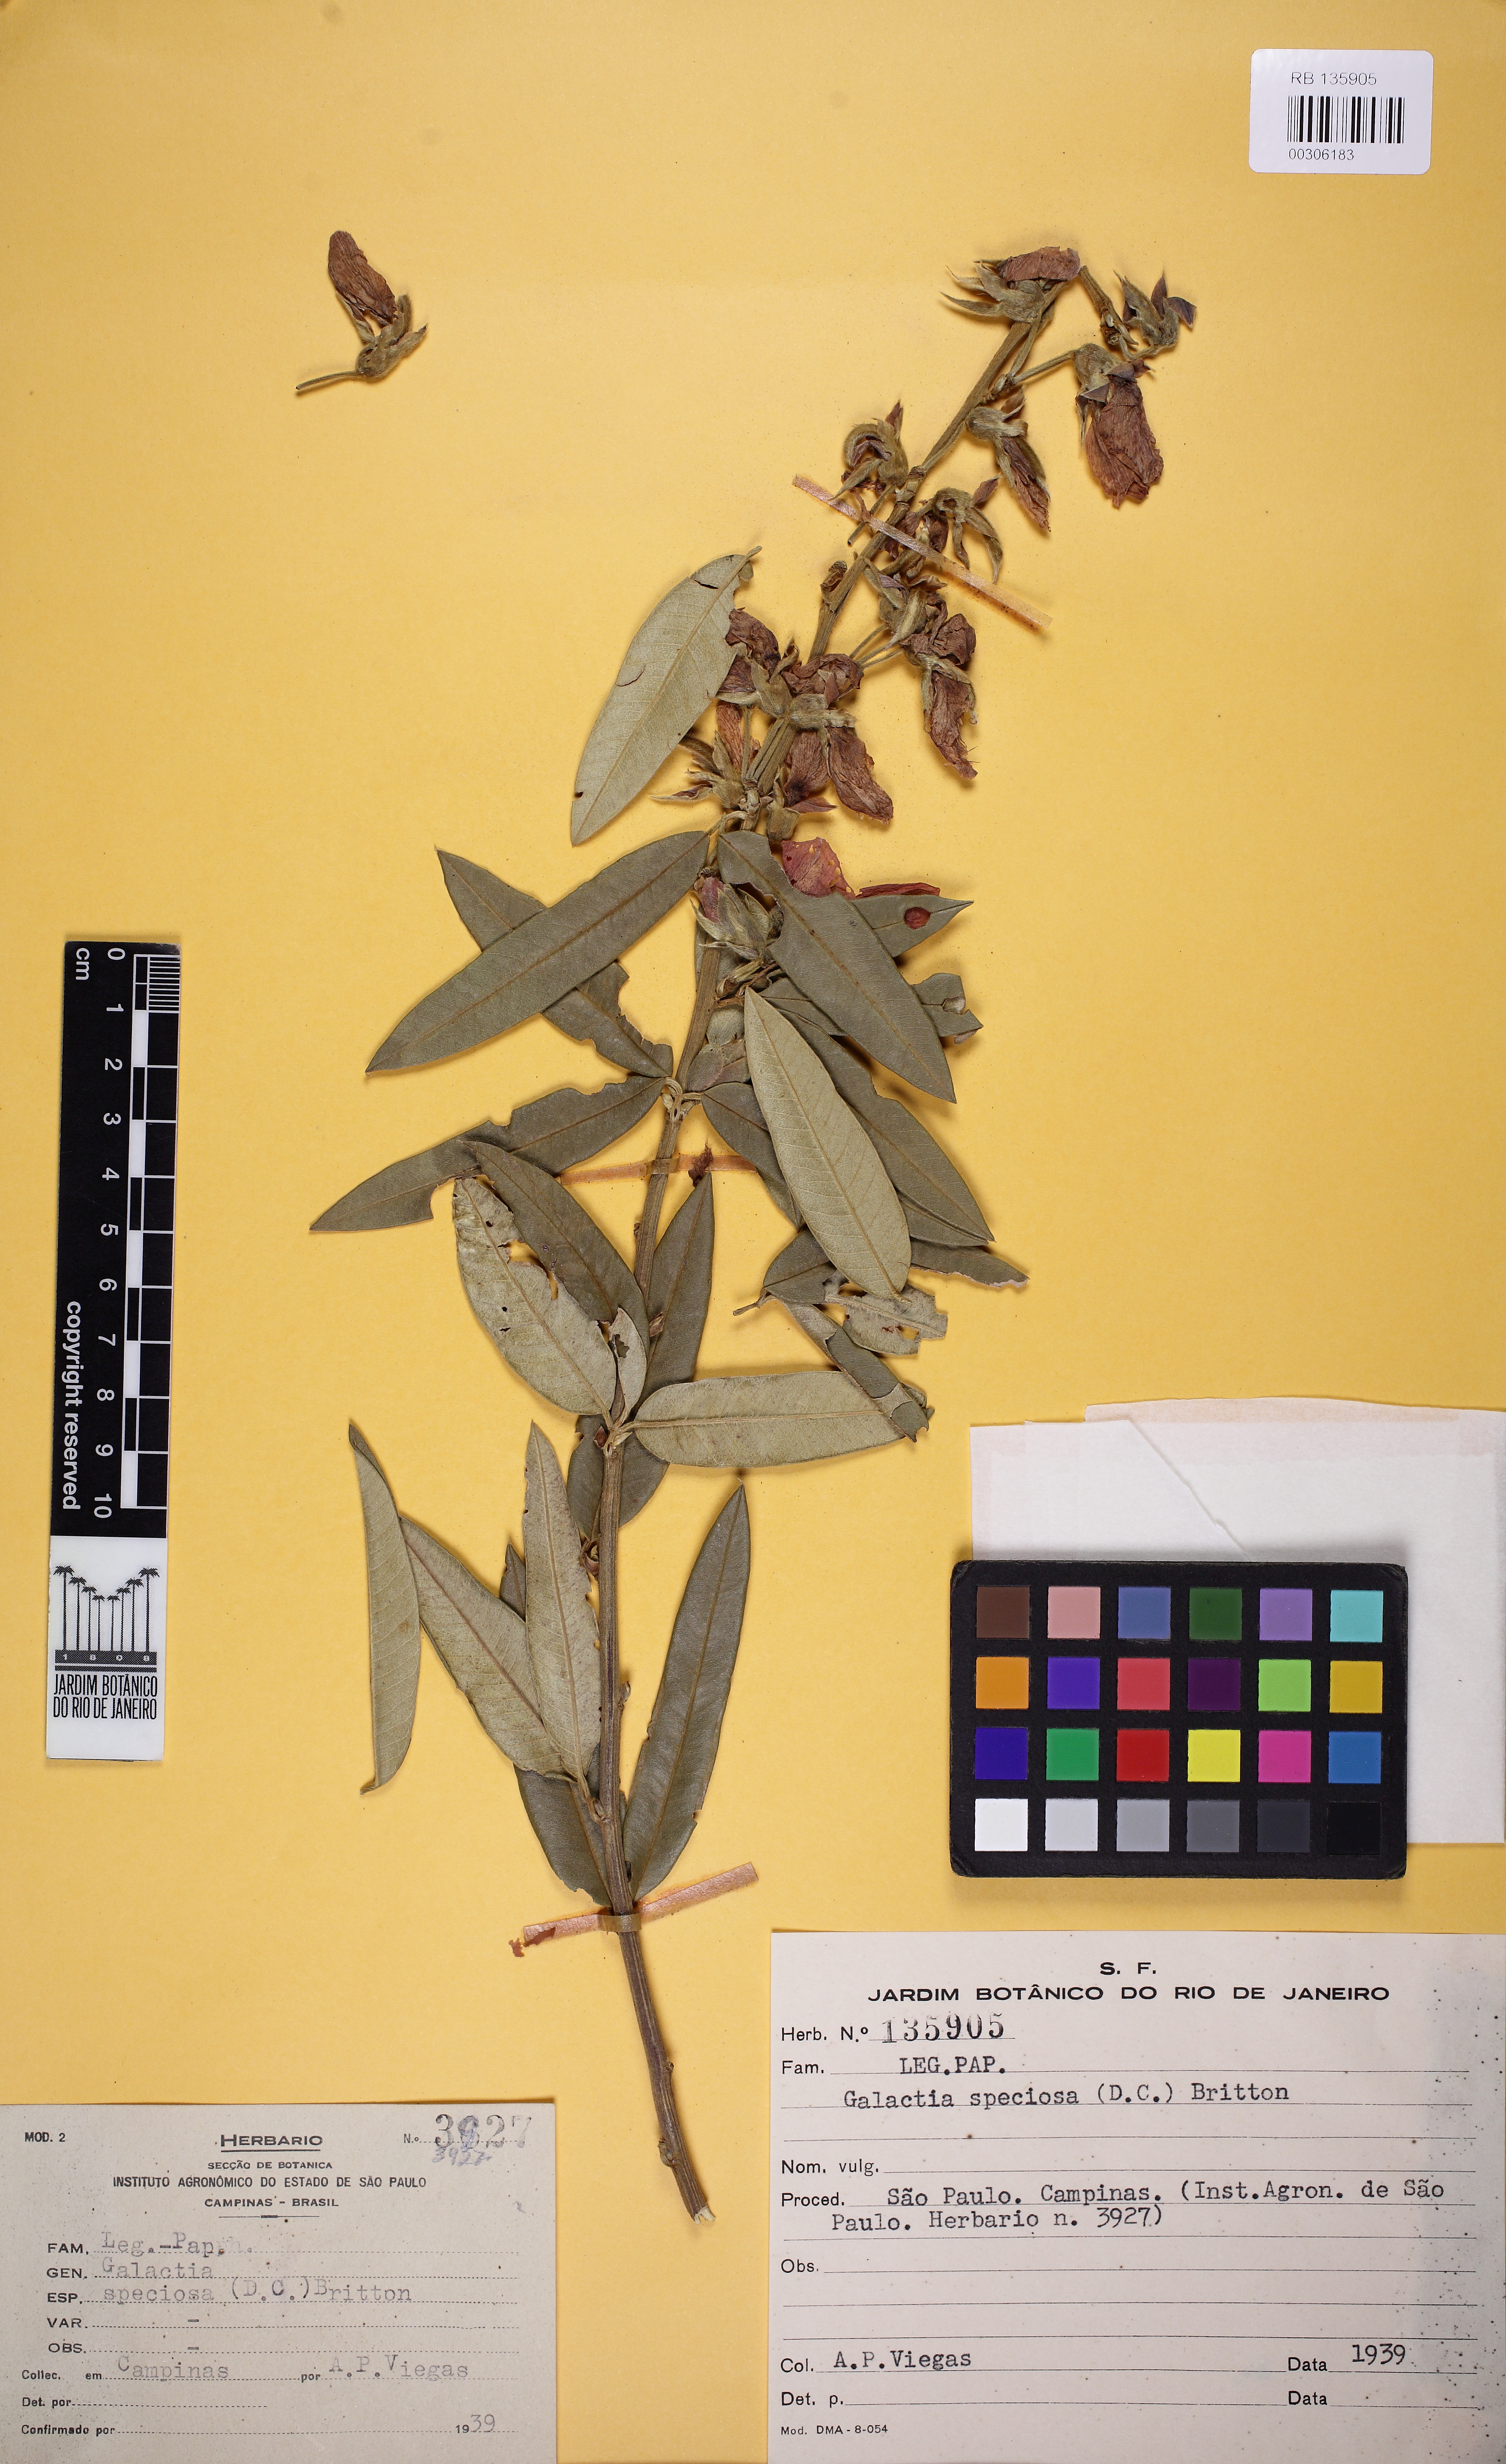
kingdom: Plantae
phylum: Tracheophyta
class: Magnoliopsida
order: Fabales
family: Fabaceae
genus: Collaea
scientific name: Collaea speciosa
